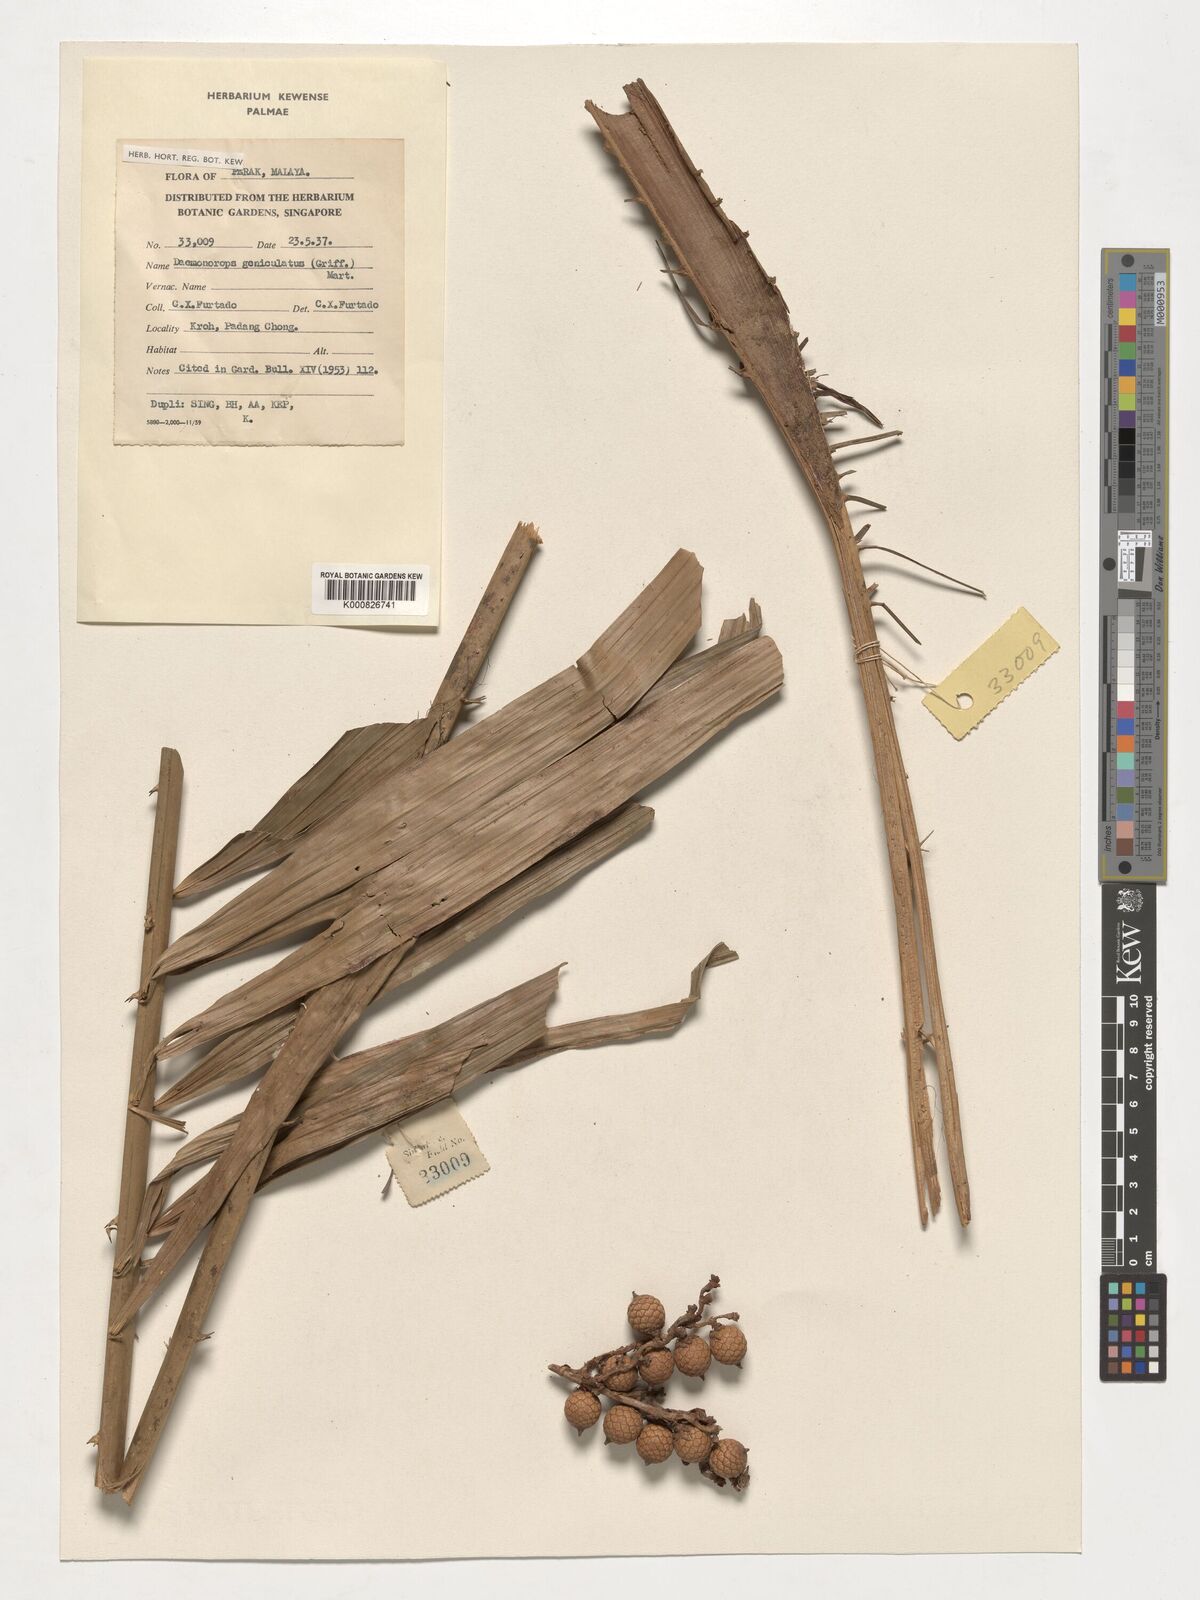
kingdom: Plantae
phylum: Tracheophyta
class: Liliopsida
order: Arecales
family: Arecaceae
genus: Calamus
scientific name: Calamus geniculatus
